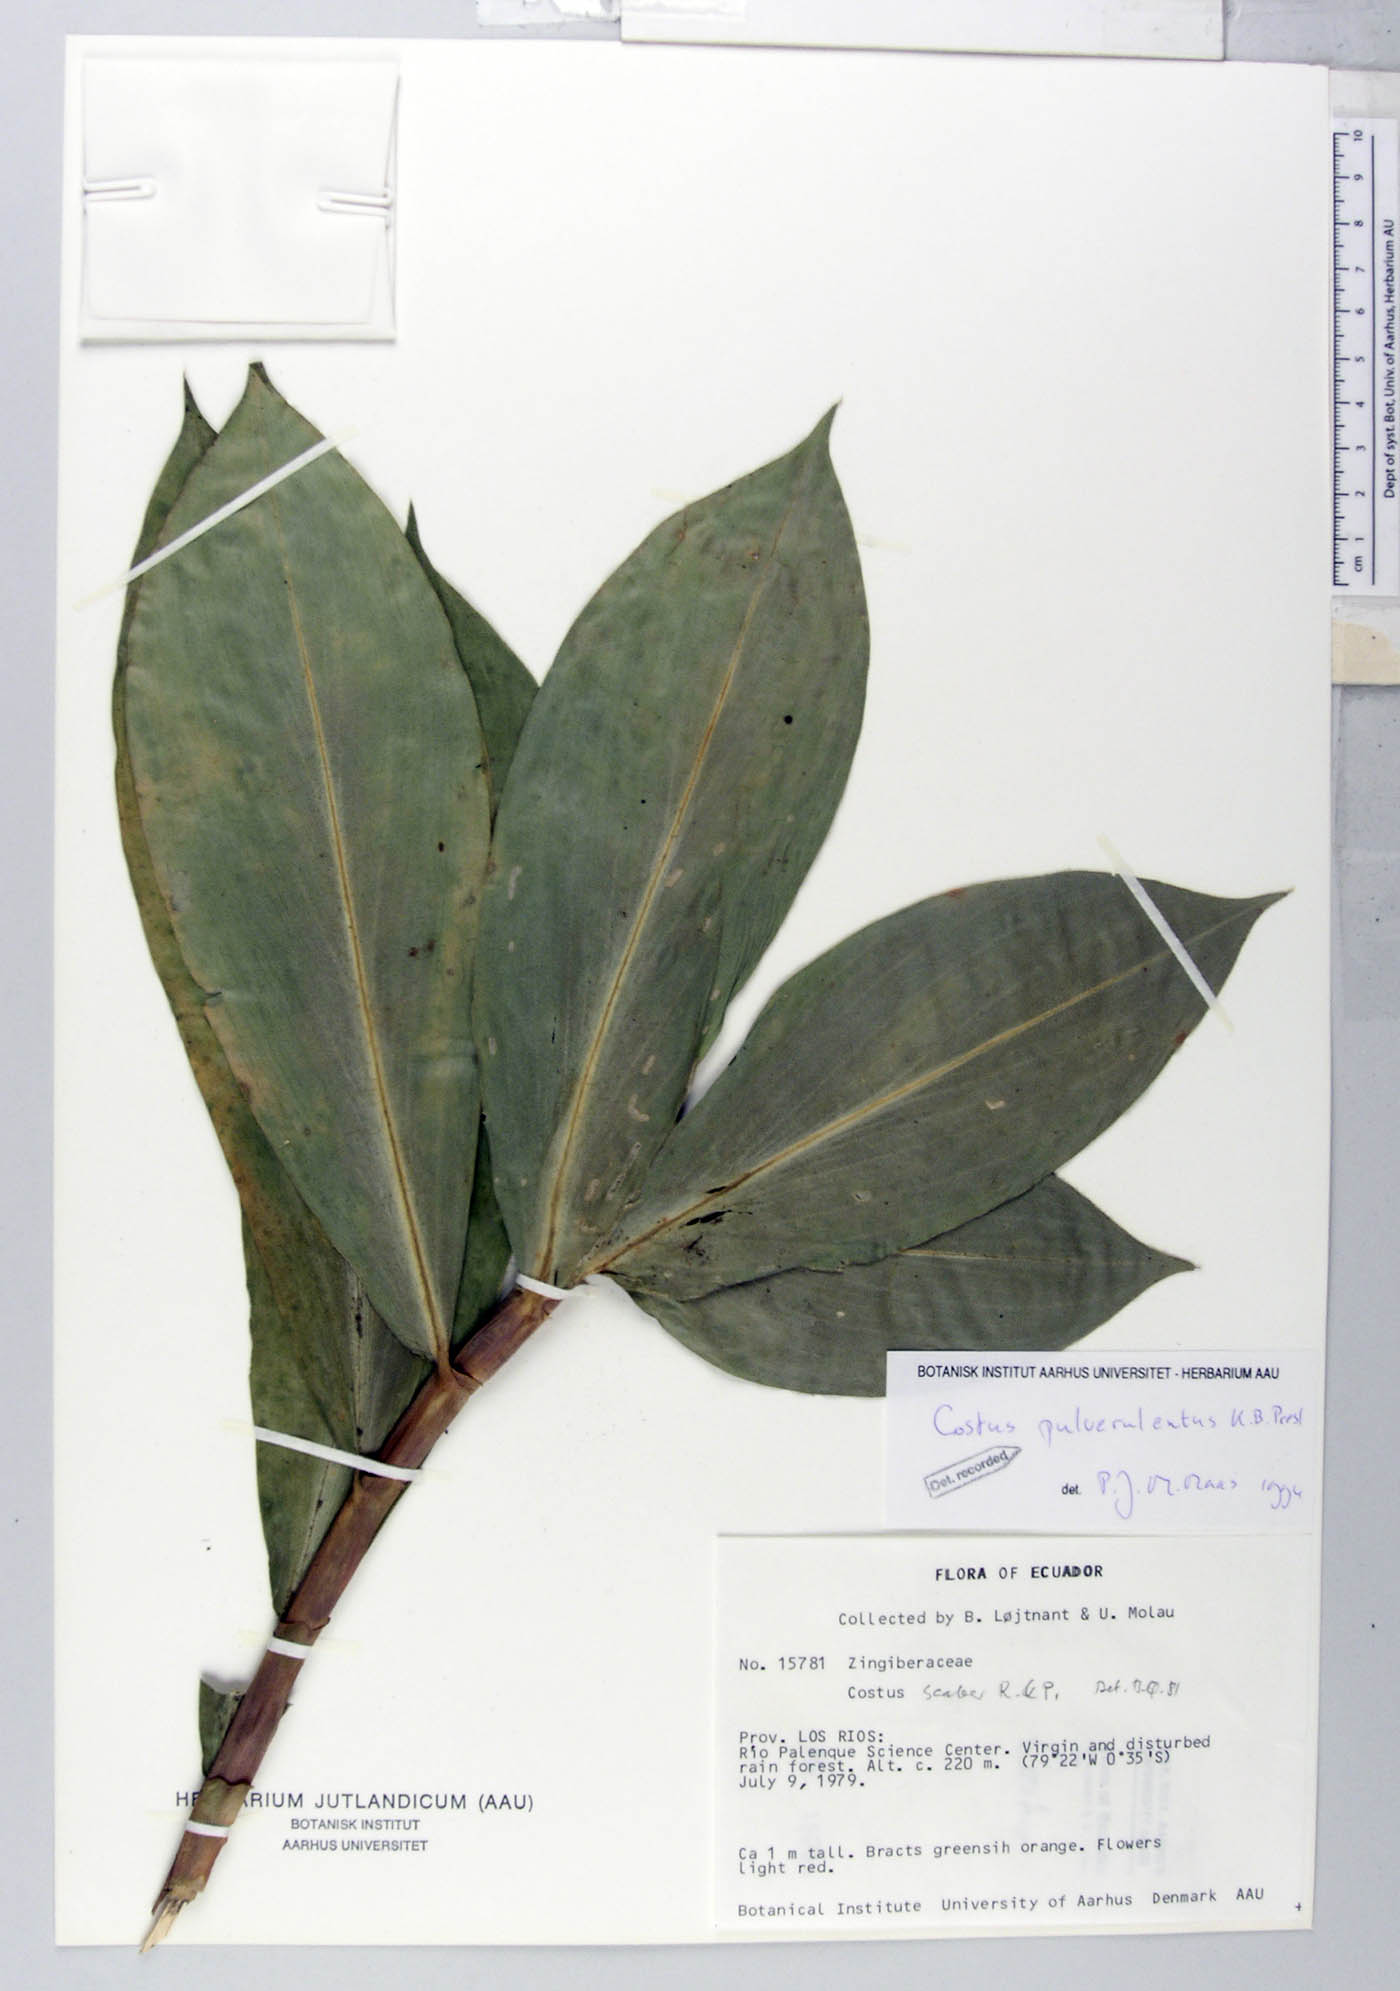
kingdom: Plantae
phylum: Tracheophyta
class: Liliopsida
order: Zingiberales
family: Costaceae
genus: Costus
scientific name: Costus pulverulentus
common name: Spiral ginger
